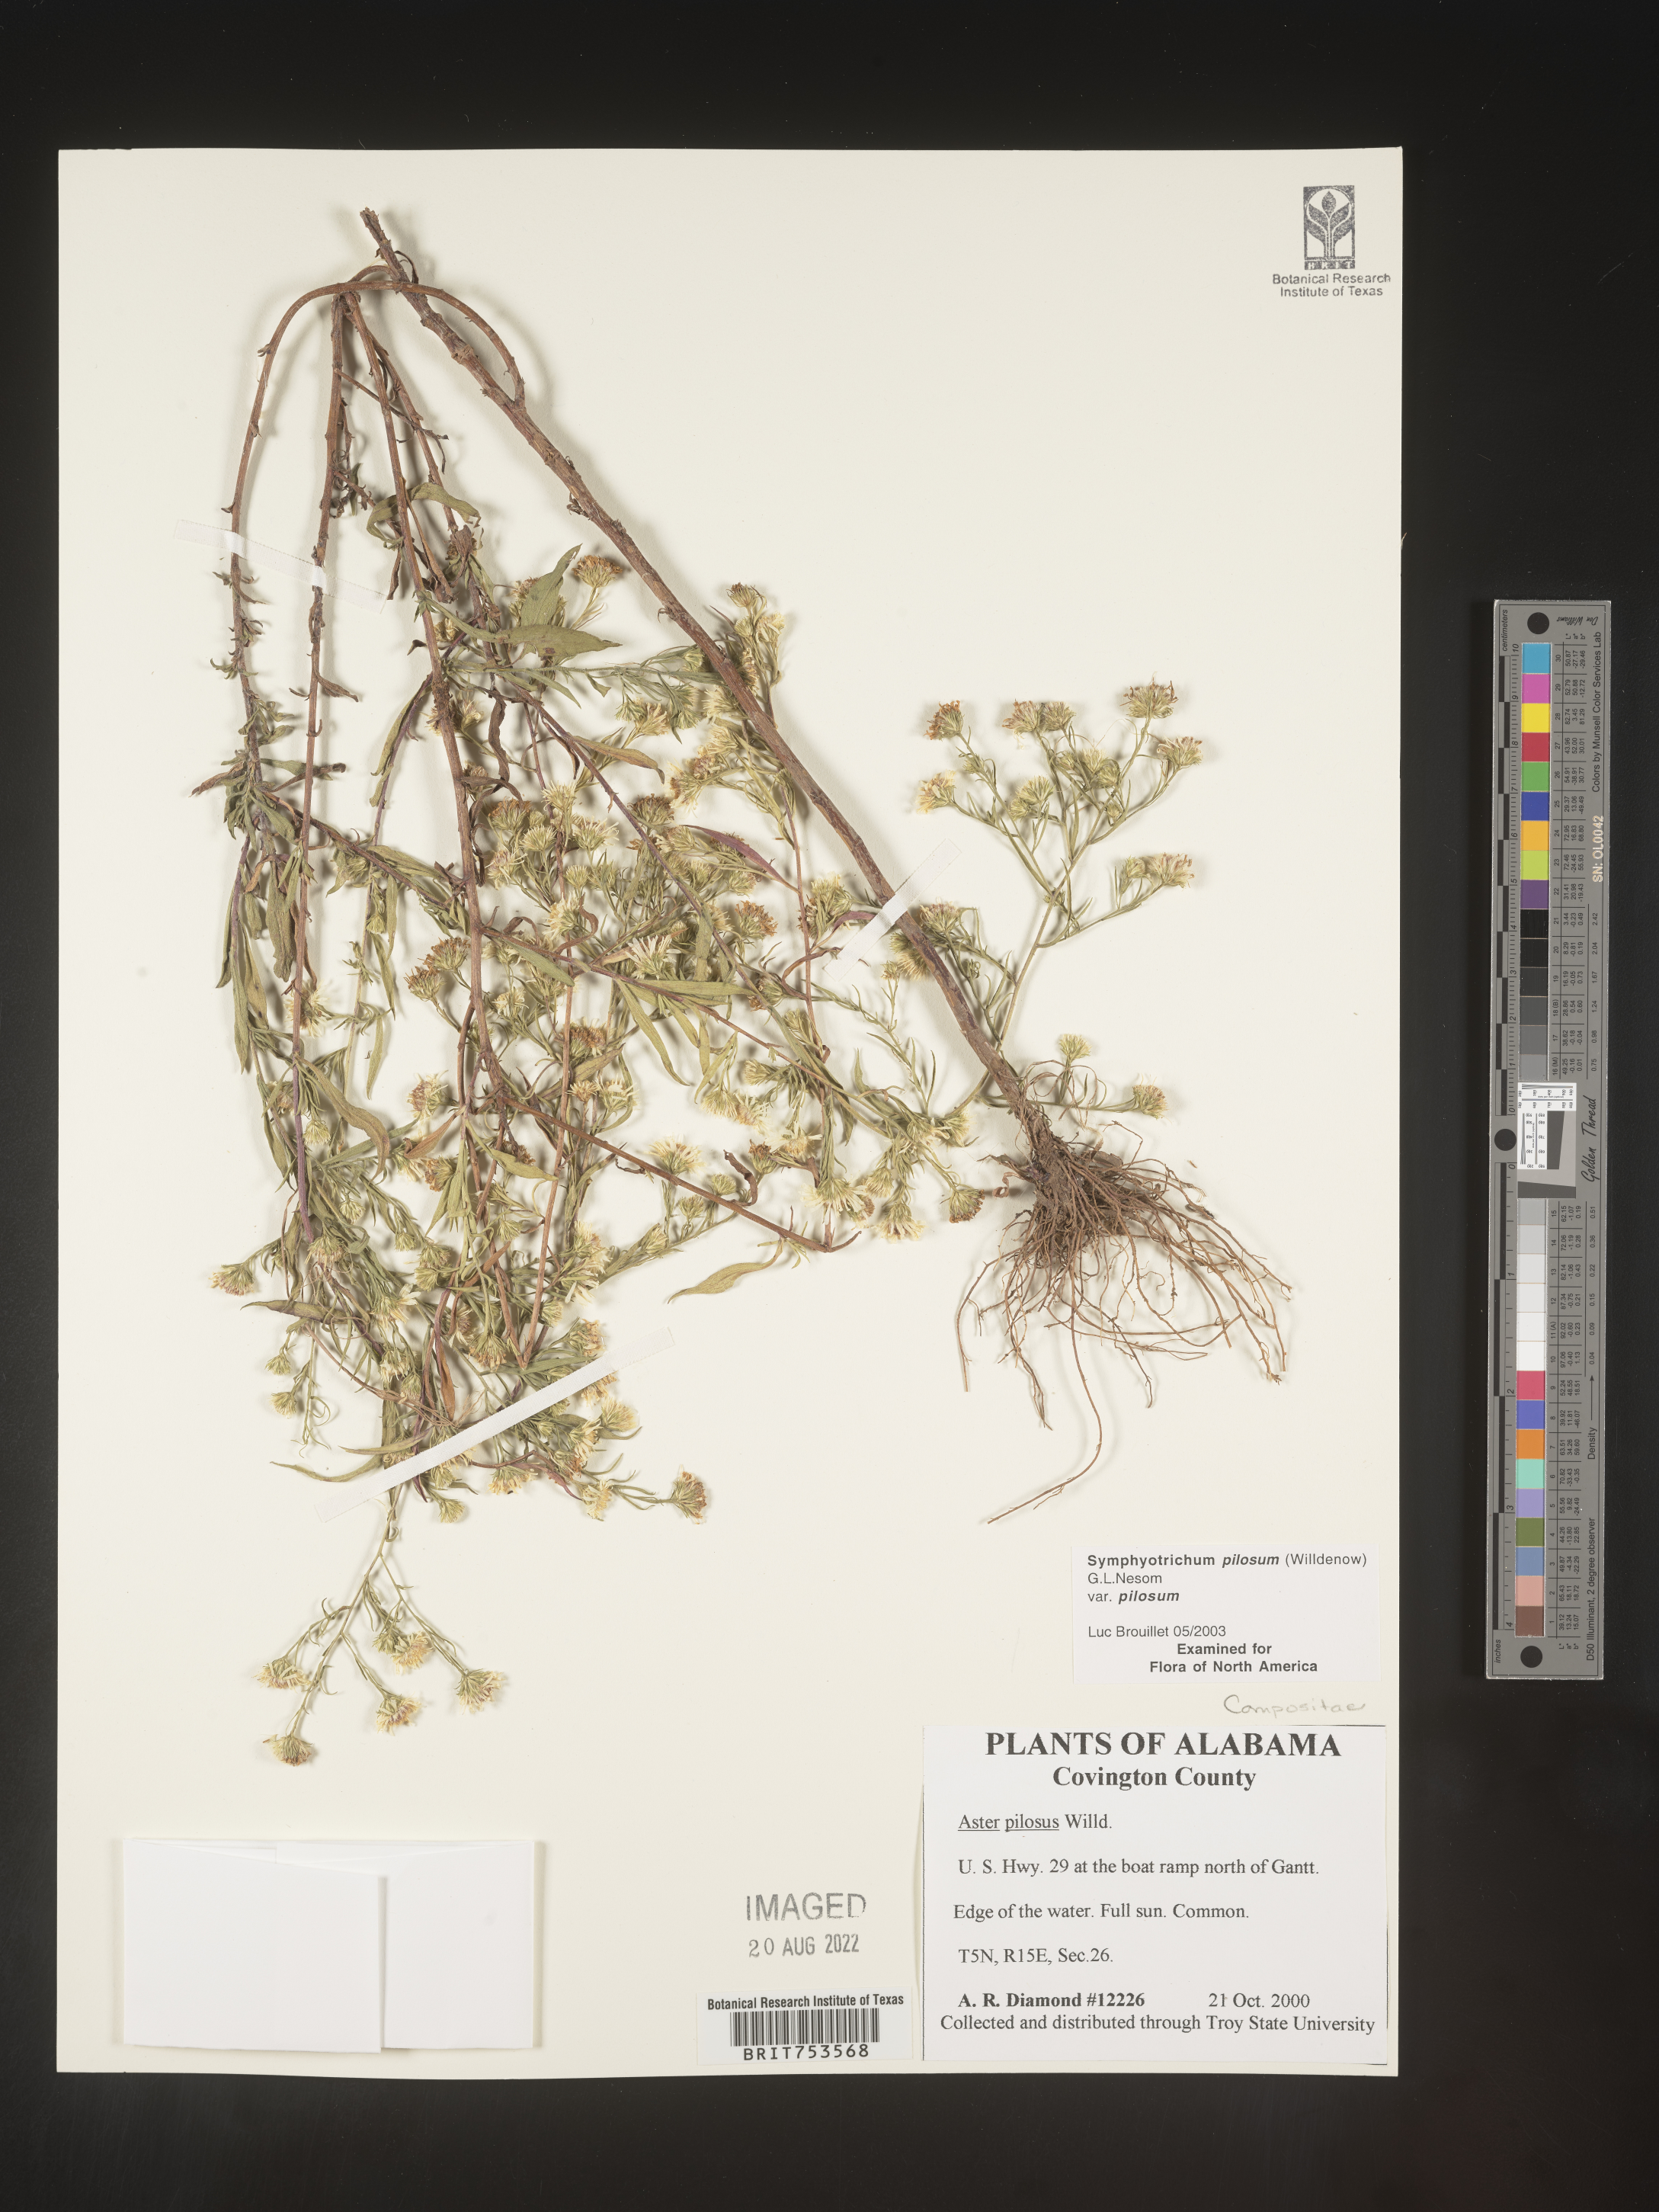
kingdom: Plantae
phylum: Tracheophyta
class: Magnoliopsida
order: Asterales
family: Asteraceae
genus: Symphyotrichum
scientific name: Symphyotrichum pilosum
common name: Awl aster
